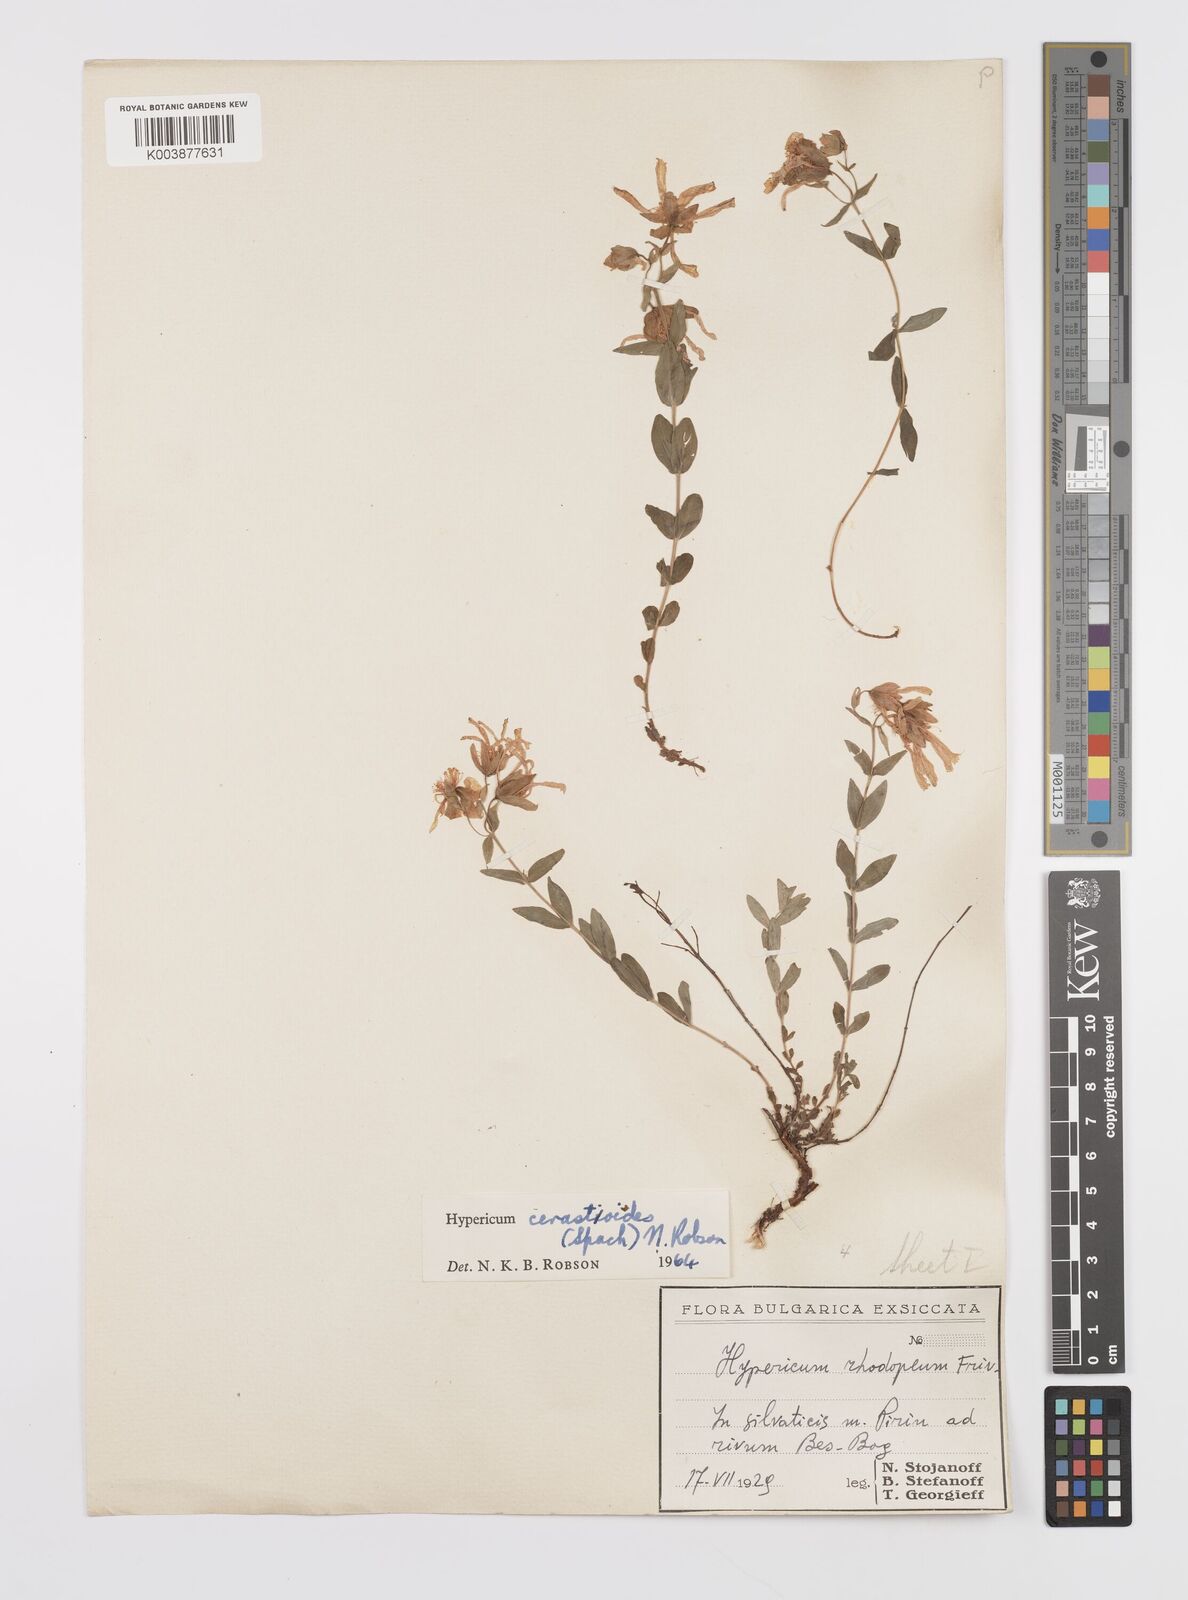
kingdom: Plantae
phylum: Tracheophyta
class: Magnoliopsida
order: Malpighiales
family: Hypericaceae
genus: Hypericum
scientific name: Hypericum cerastoides
